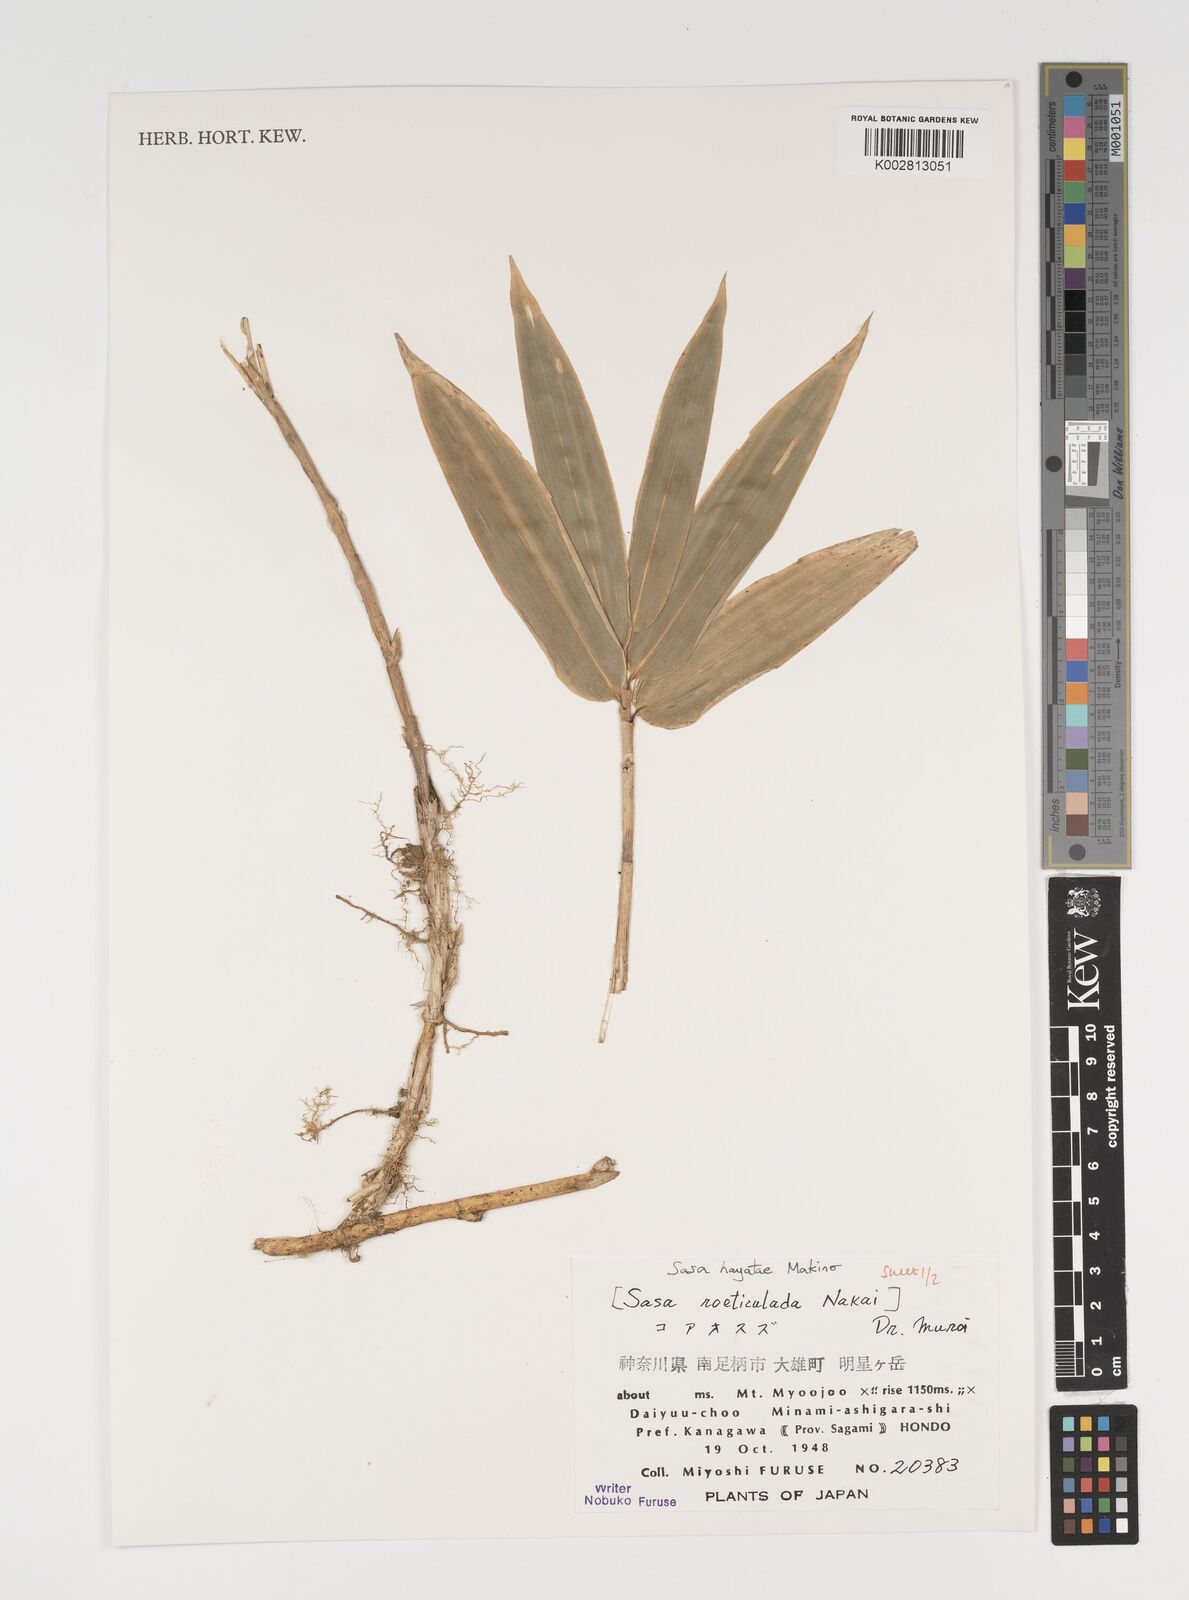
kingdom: Plantae
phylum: Tracheophyta
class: Liliopsida
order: Poales
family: Poaceae
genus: Sasa
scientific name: Sasa hayatae
